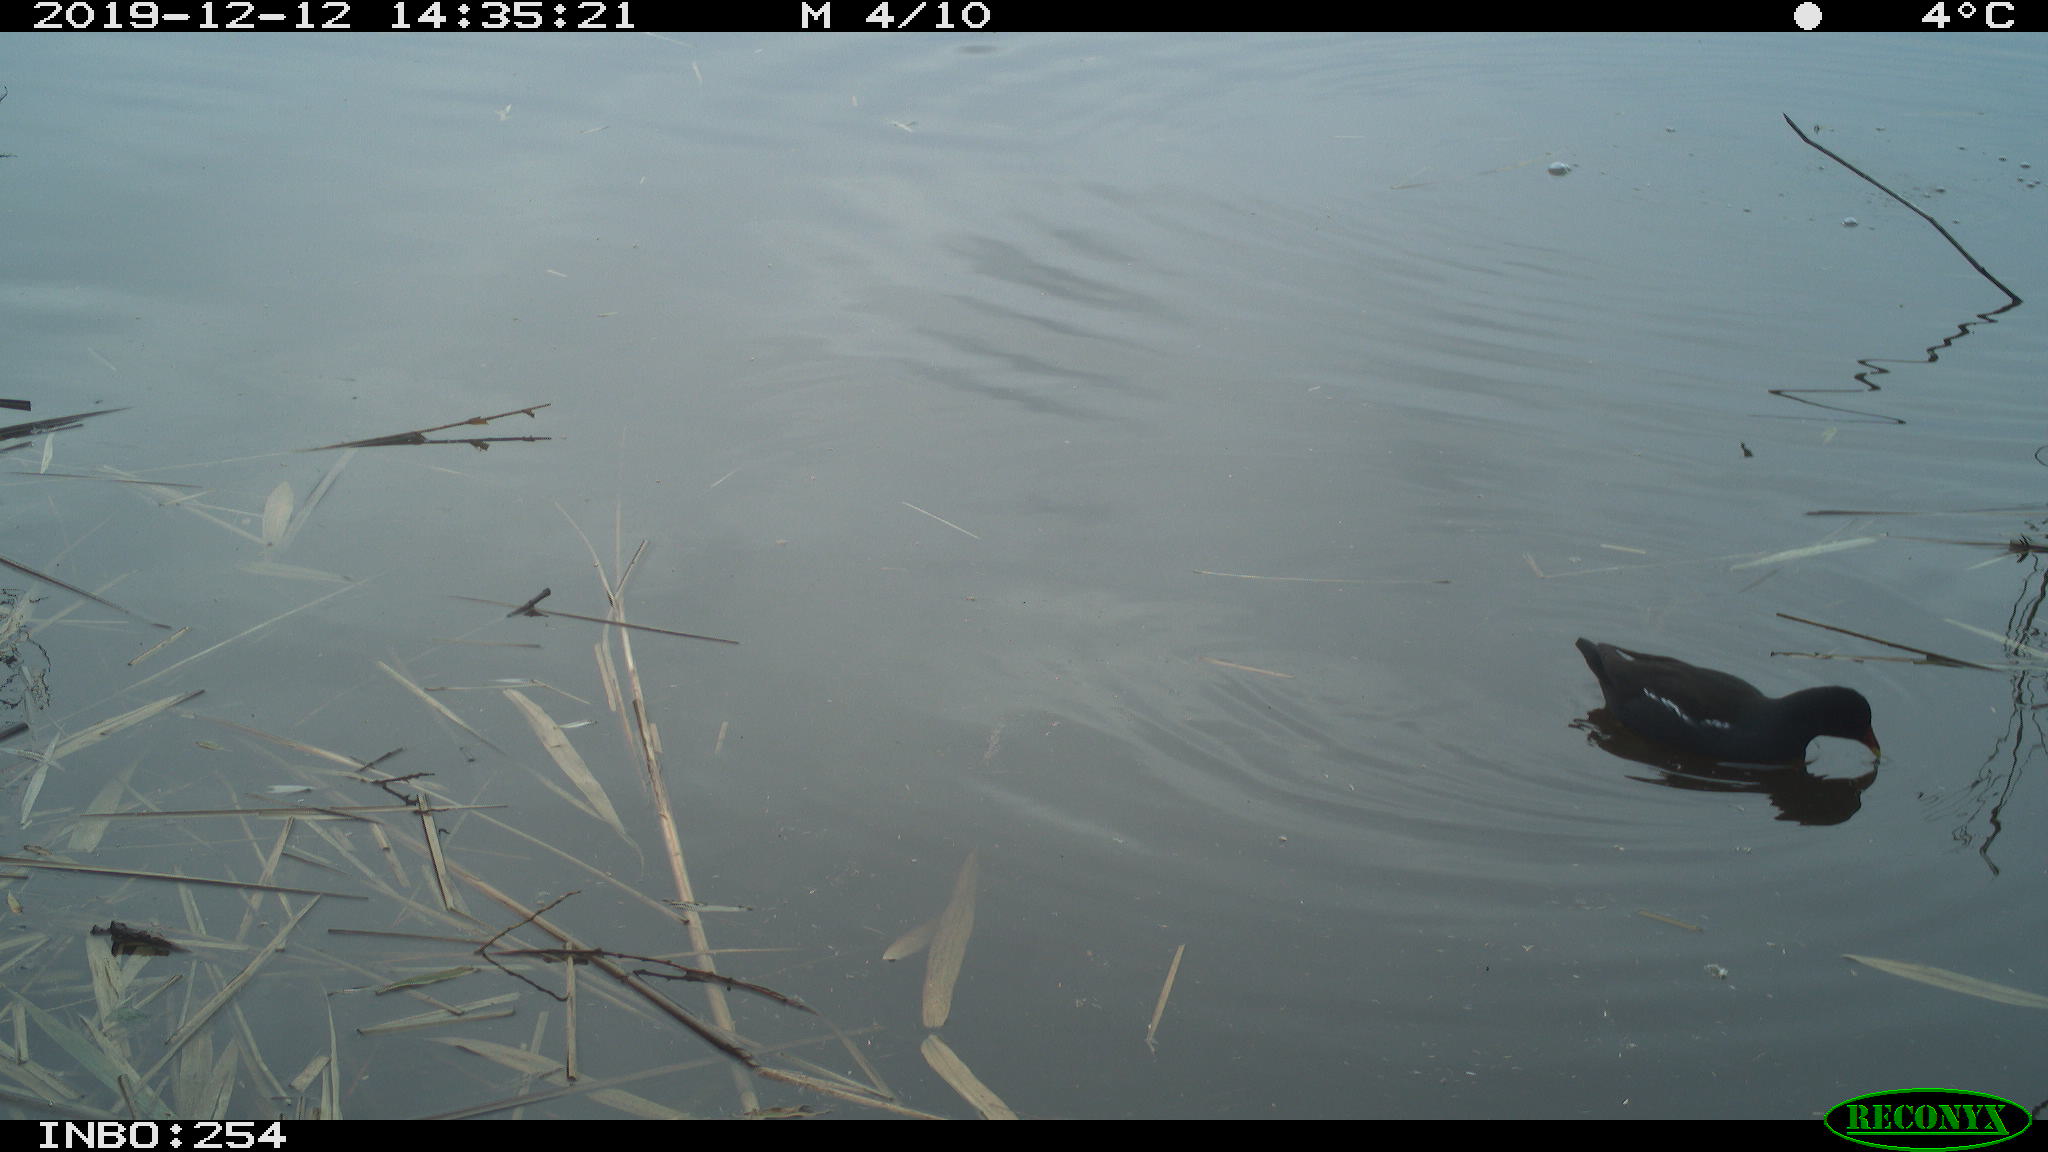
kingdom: Animalia
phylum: Chordata
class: Aves
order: Gruiformes
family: Rallidae
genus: Gallinula
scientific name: Gallinula chloropus
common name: Common moorhen
